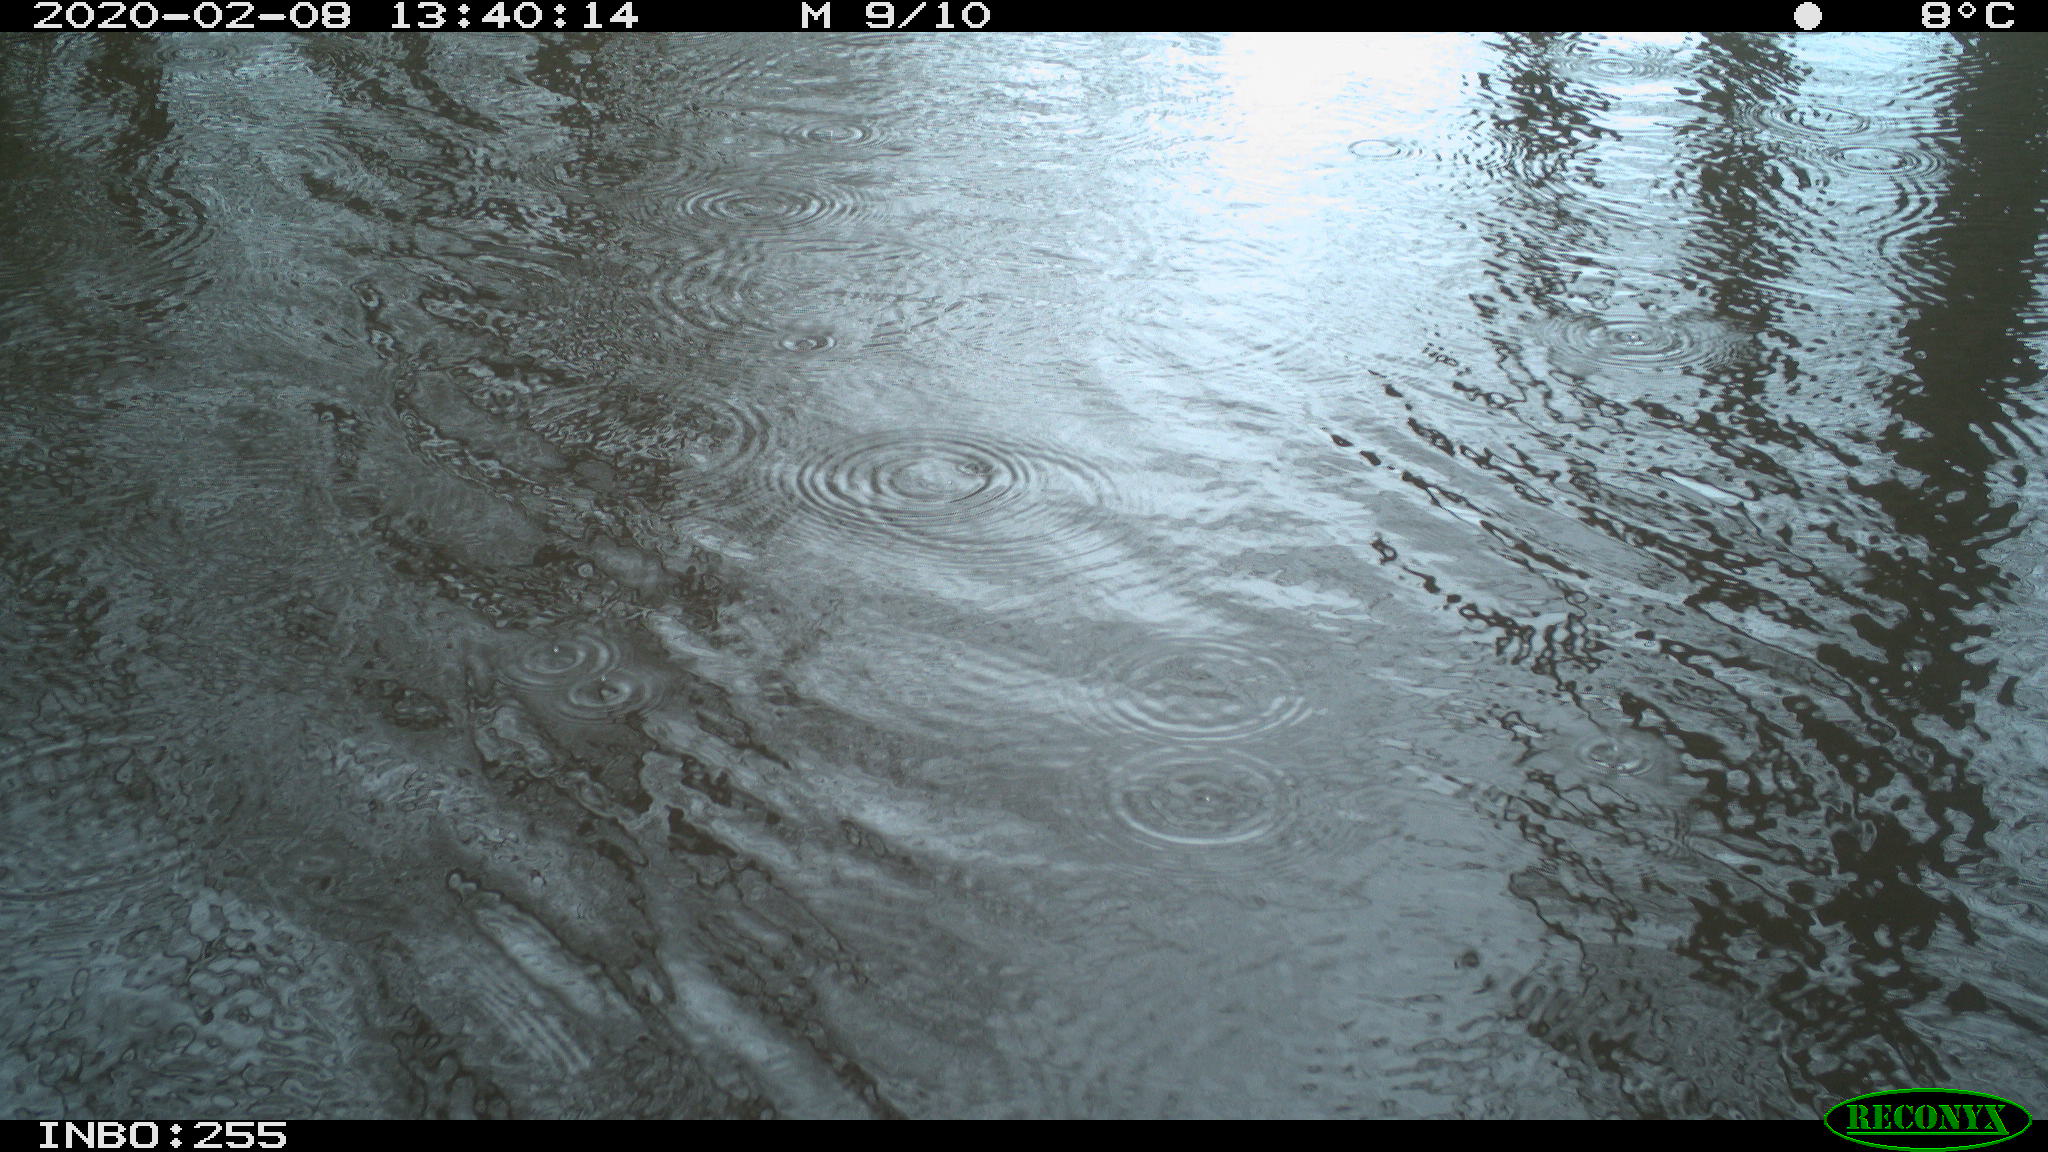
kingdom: Animalia
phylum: Chordata
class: Aves
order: Gruiformes
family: Rallidae
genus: Fulica
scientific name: Fulica atra
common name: Eurasian coot
